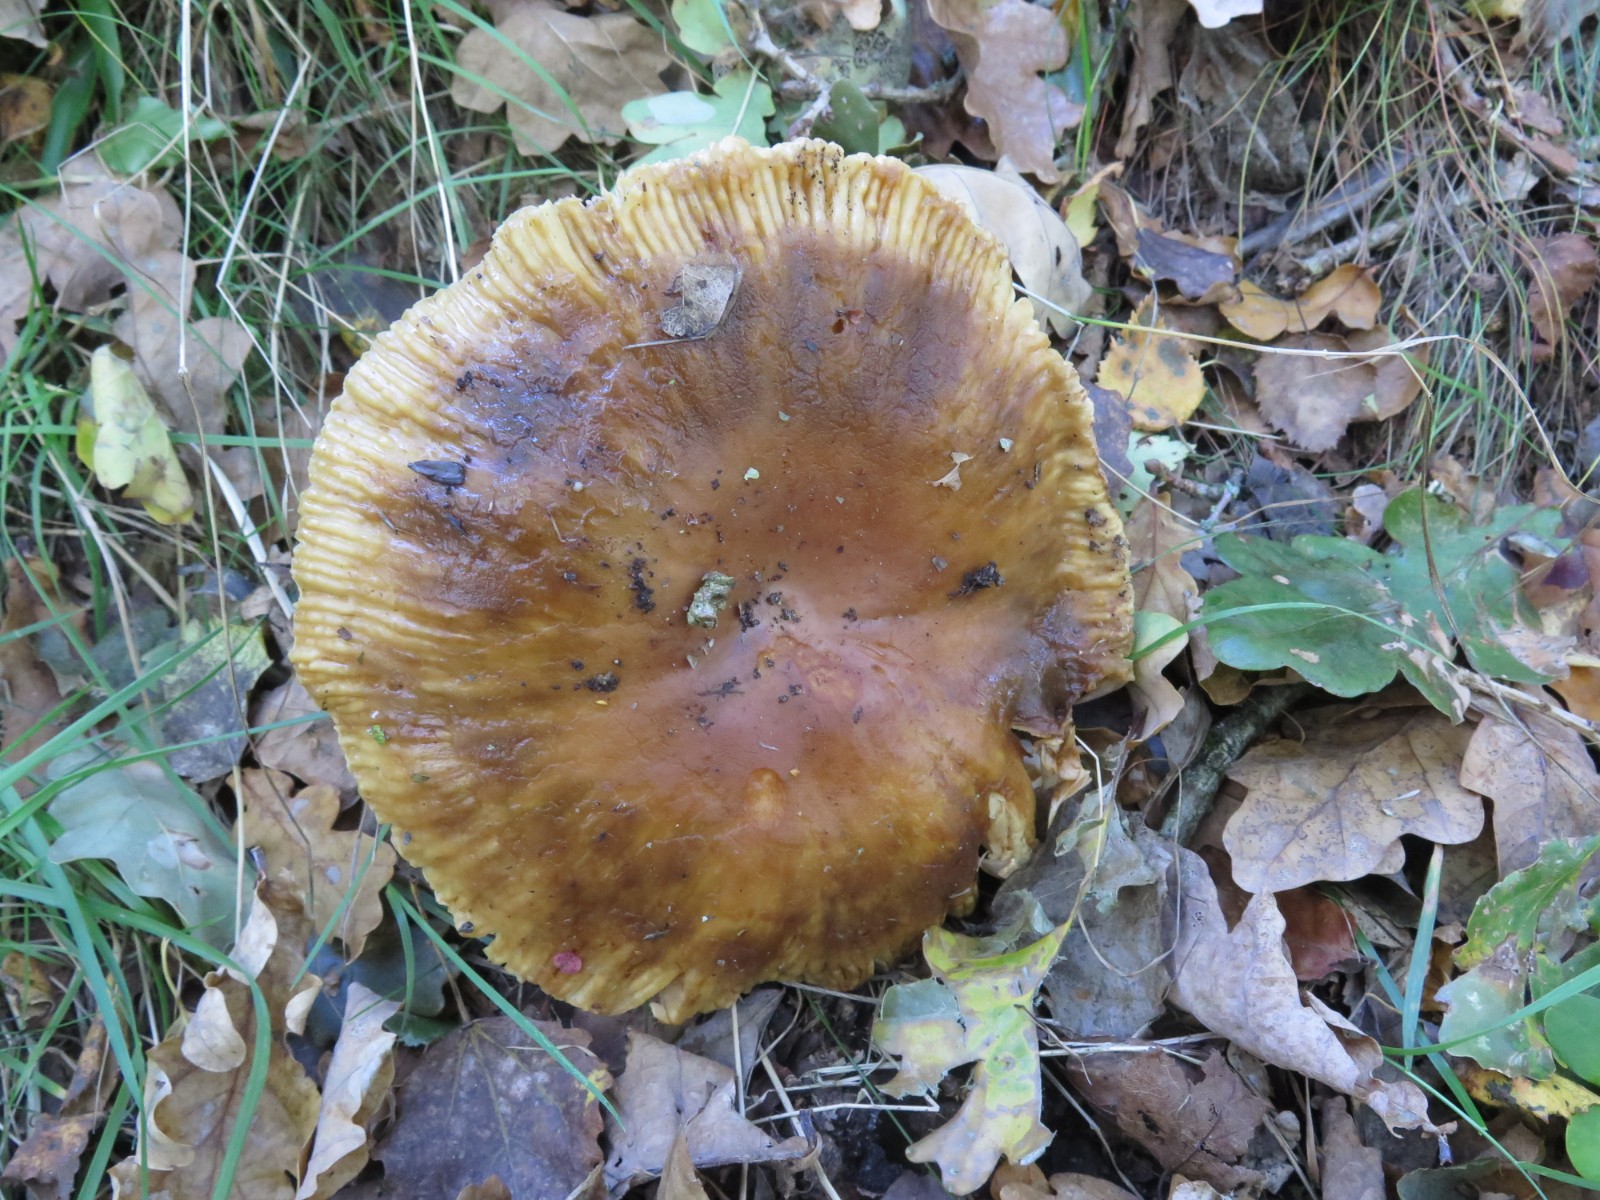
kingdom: Fungi
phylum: Basidiomycota
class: Agaricomycetes
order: Russulales
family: Russulaceae
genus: Russula
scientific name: Russula foetens
